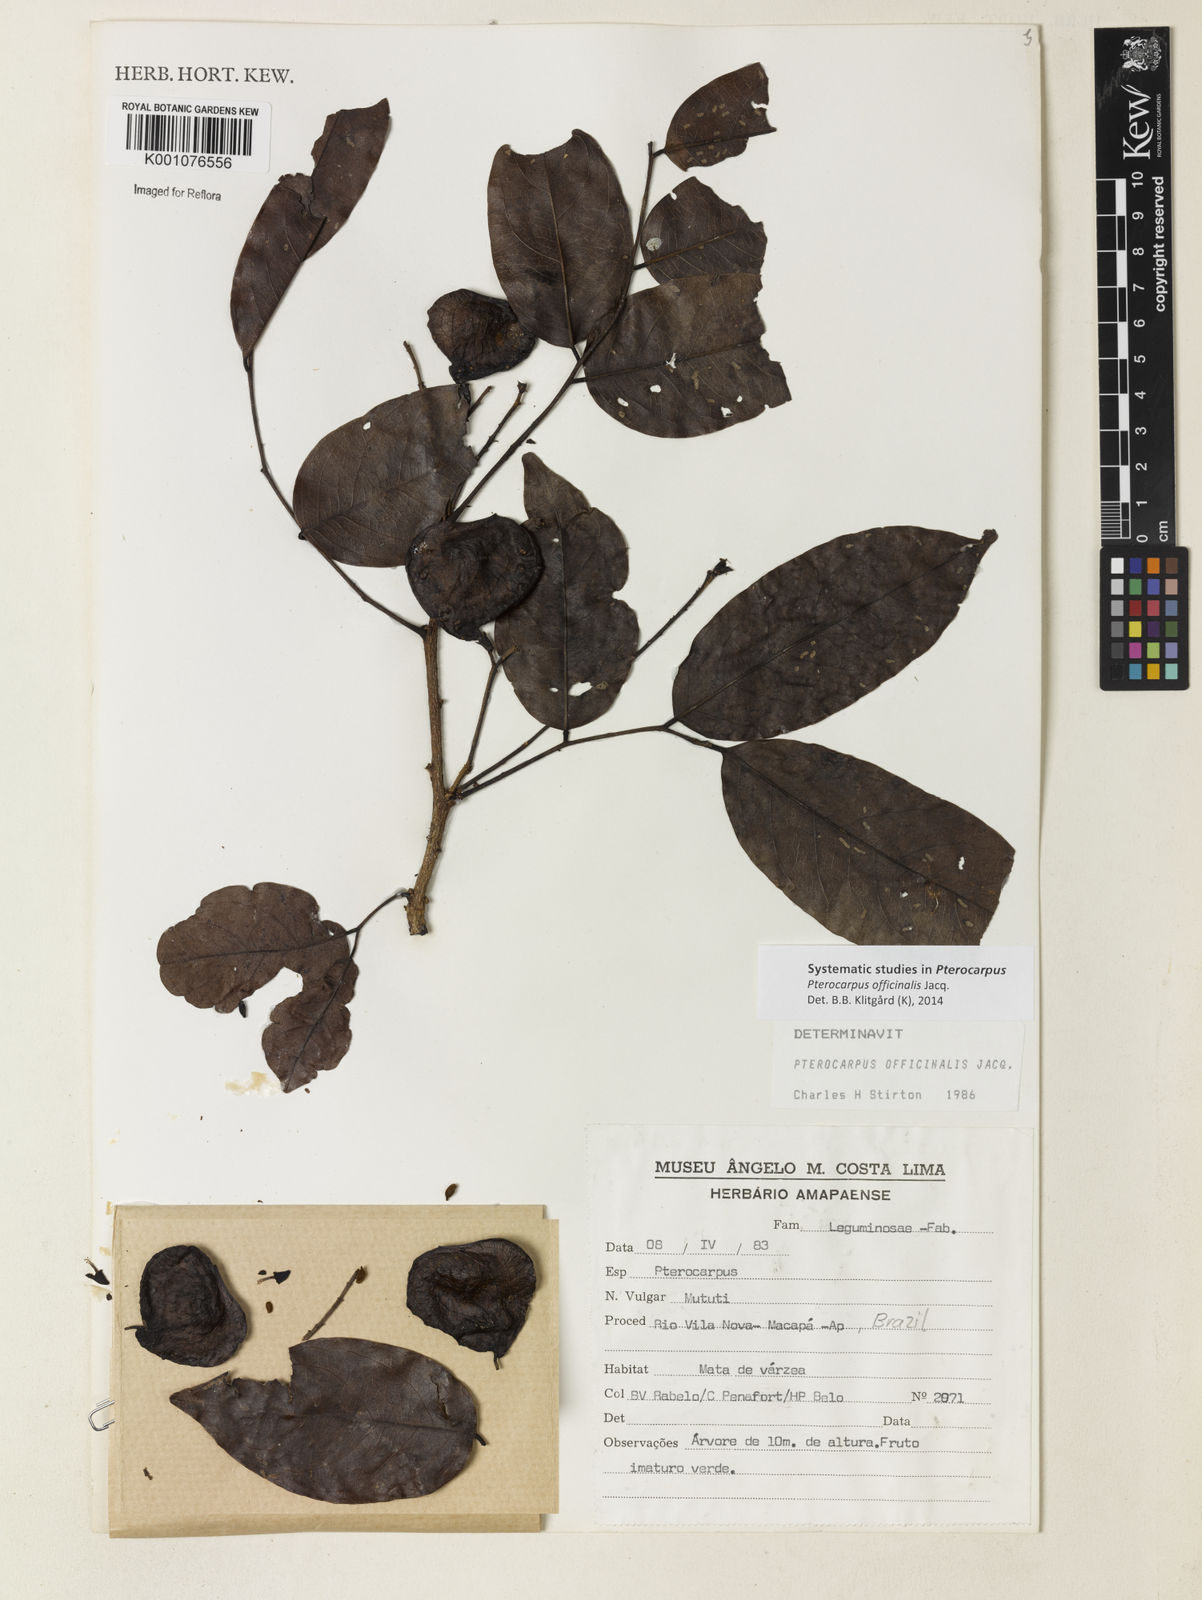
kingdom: Plantae
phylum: Tracheophyta
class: Magnoliopsida
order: Fabales
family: Fabaceae
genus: Pterocarpus
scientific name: Pterocarpus officinalis
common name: Bloodwood
